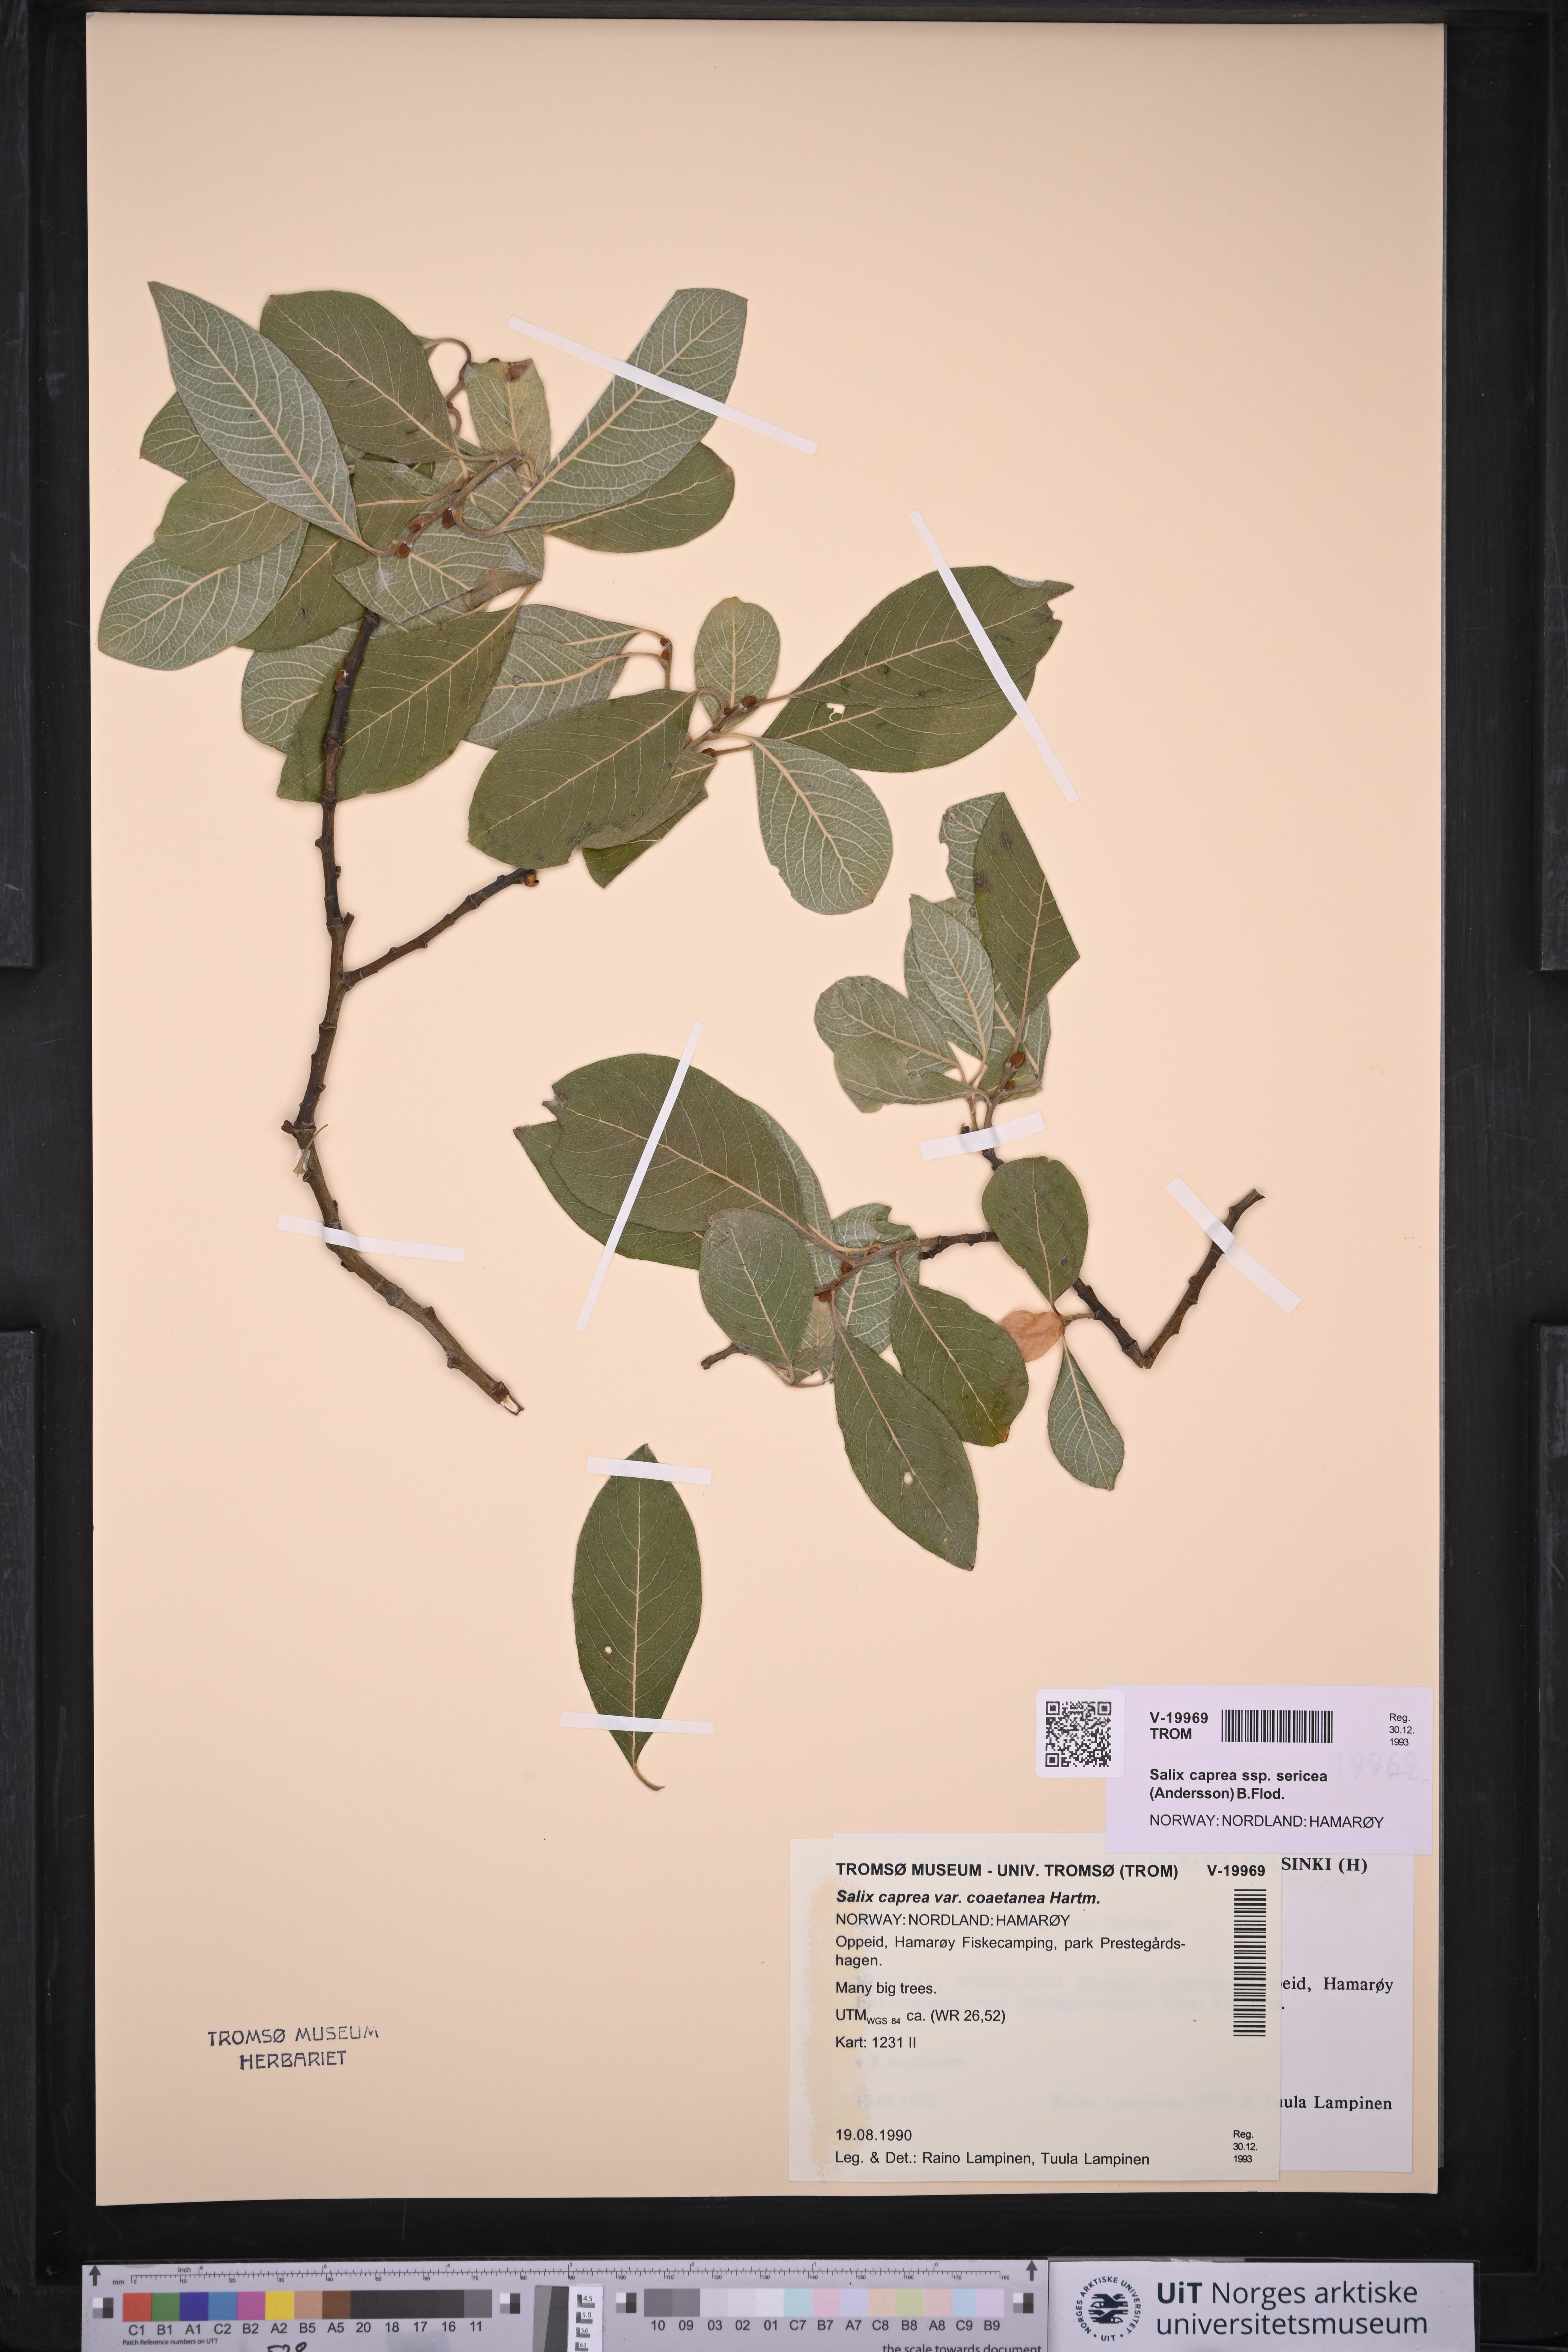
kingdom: Plantae
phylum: Tracheophyta
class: Magnoliopsida
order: Malpighiales
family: Salicaceae
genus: Salix
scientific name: Salix caprea
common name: Goat willow
